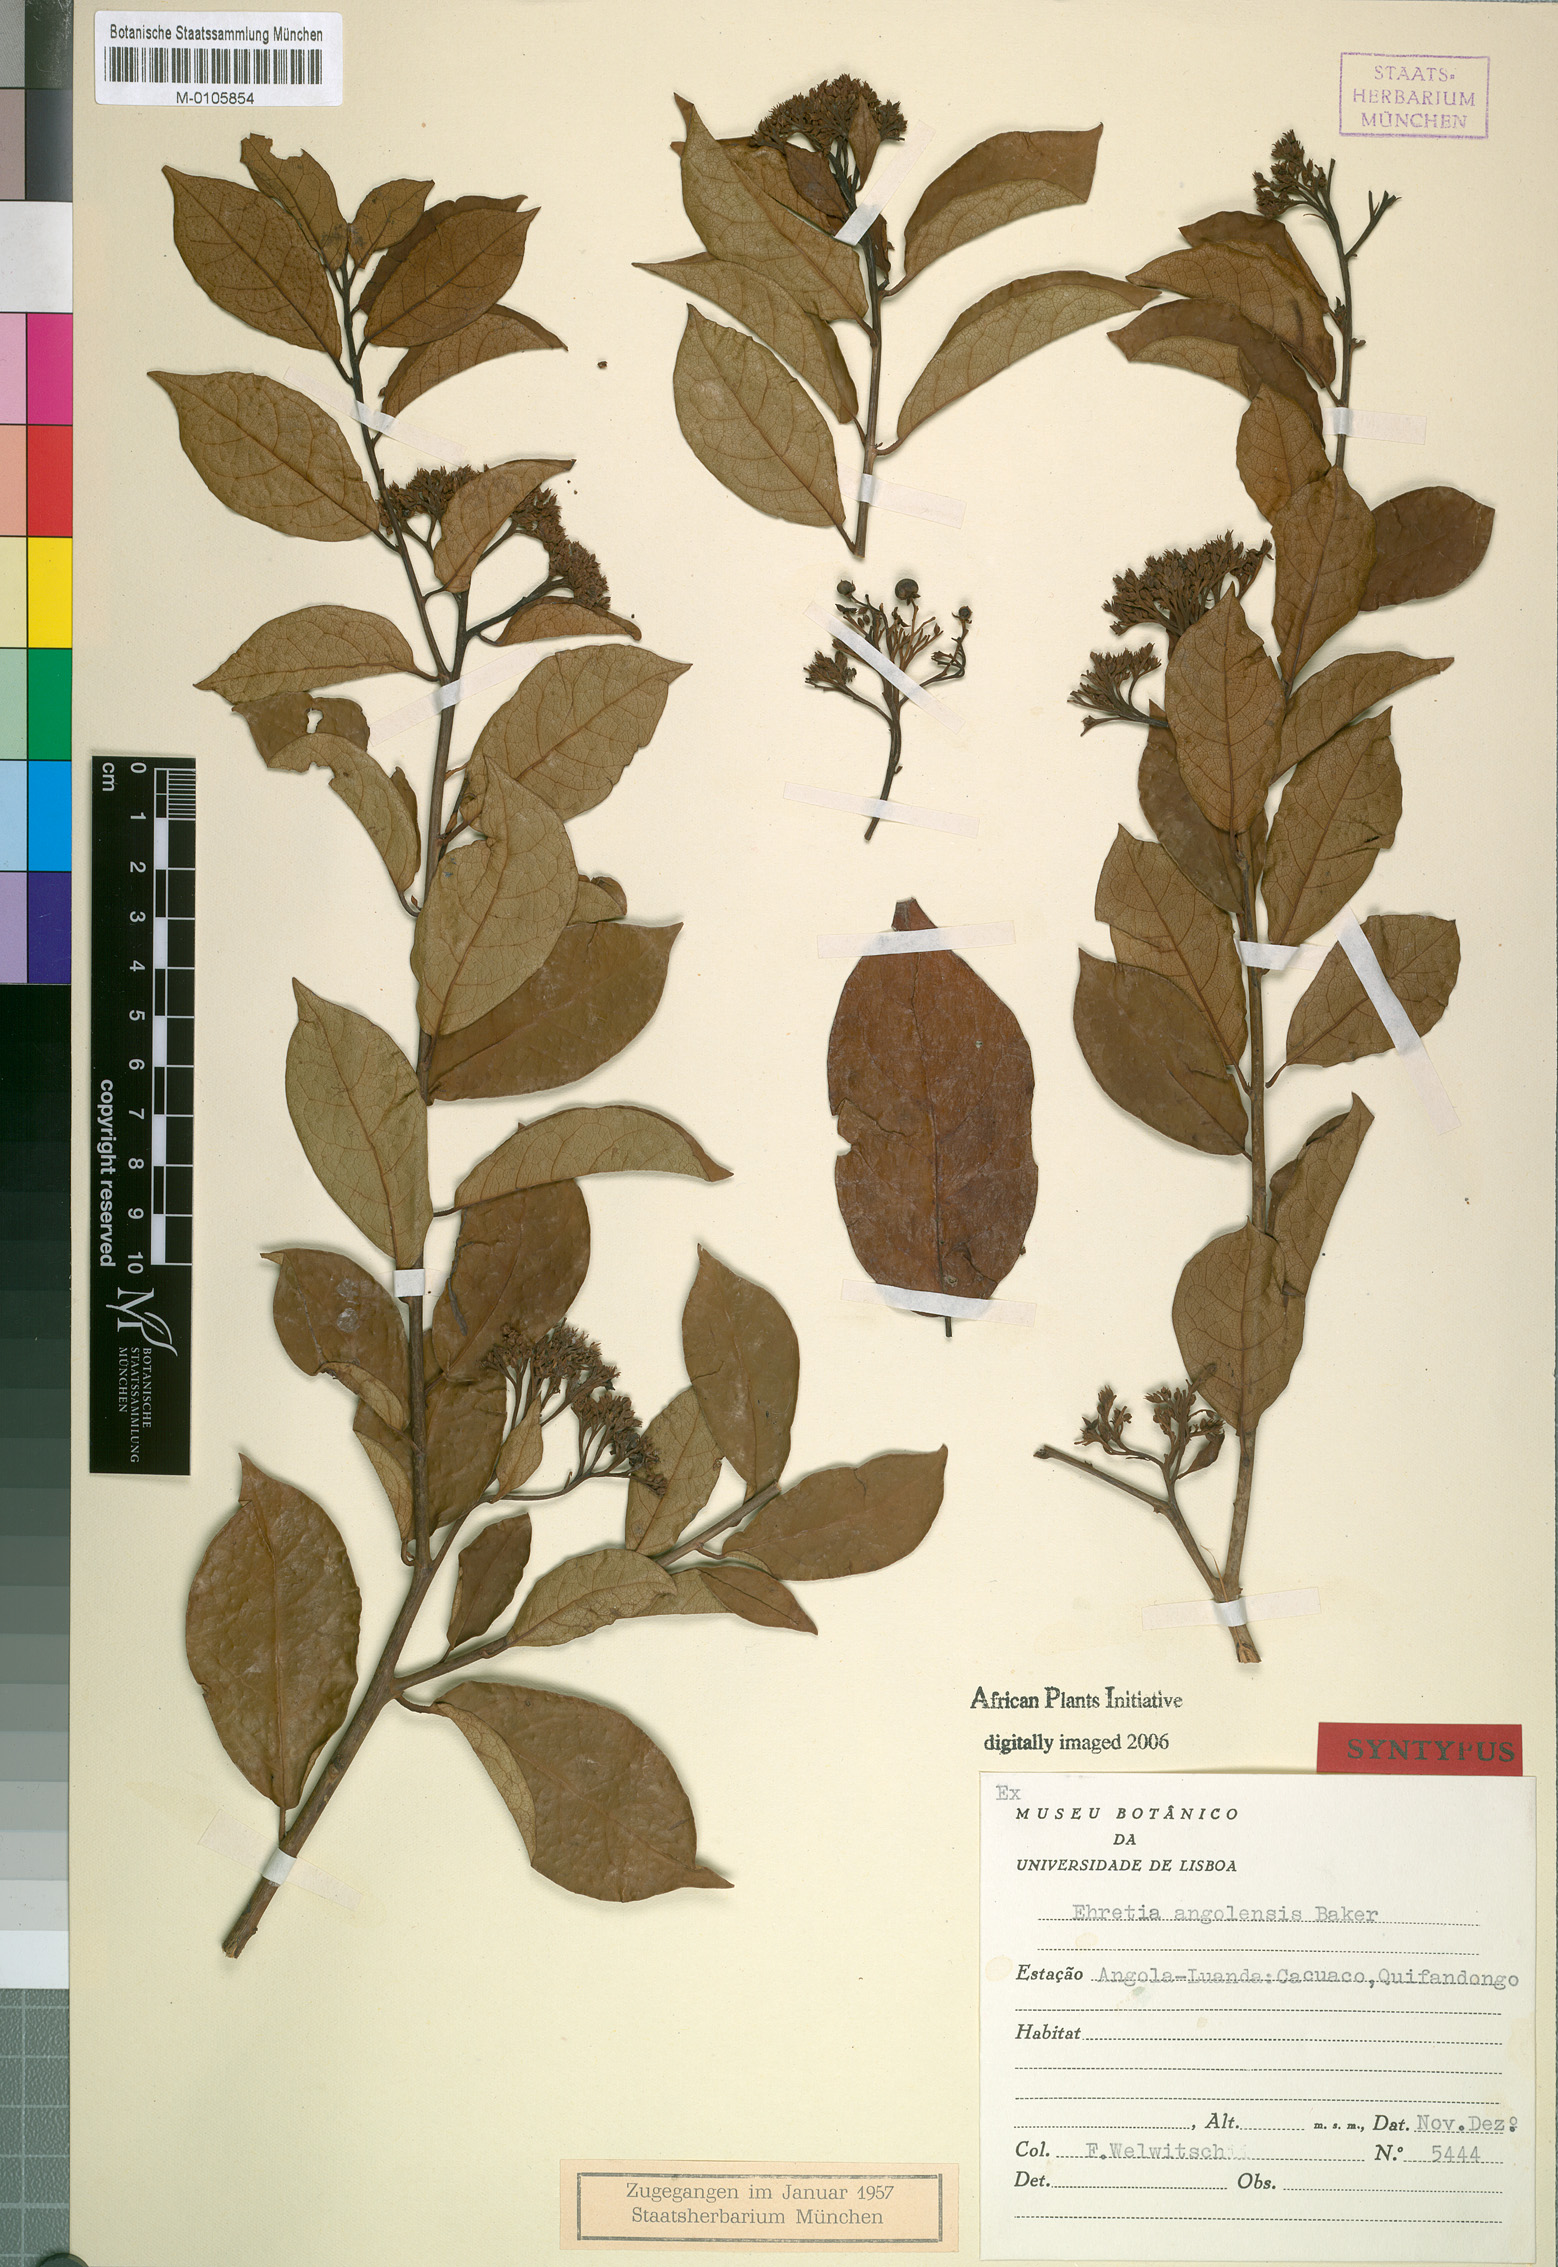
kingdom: Plantae
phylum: Tracheophyta
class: Magnoliopsida
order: Boraginales
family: Ehretiaceae
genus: Ehretia
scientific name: Ehretia angolensis
